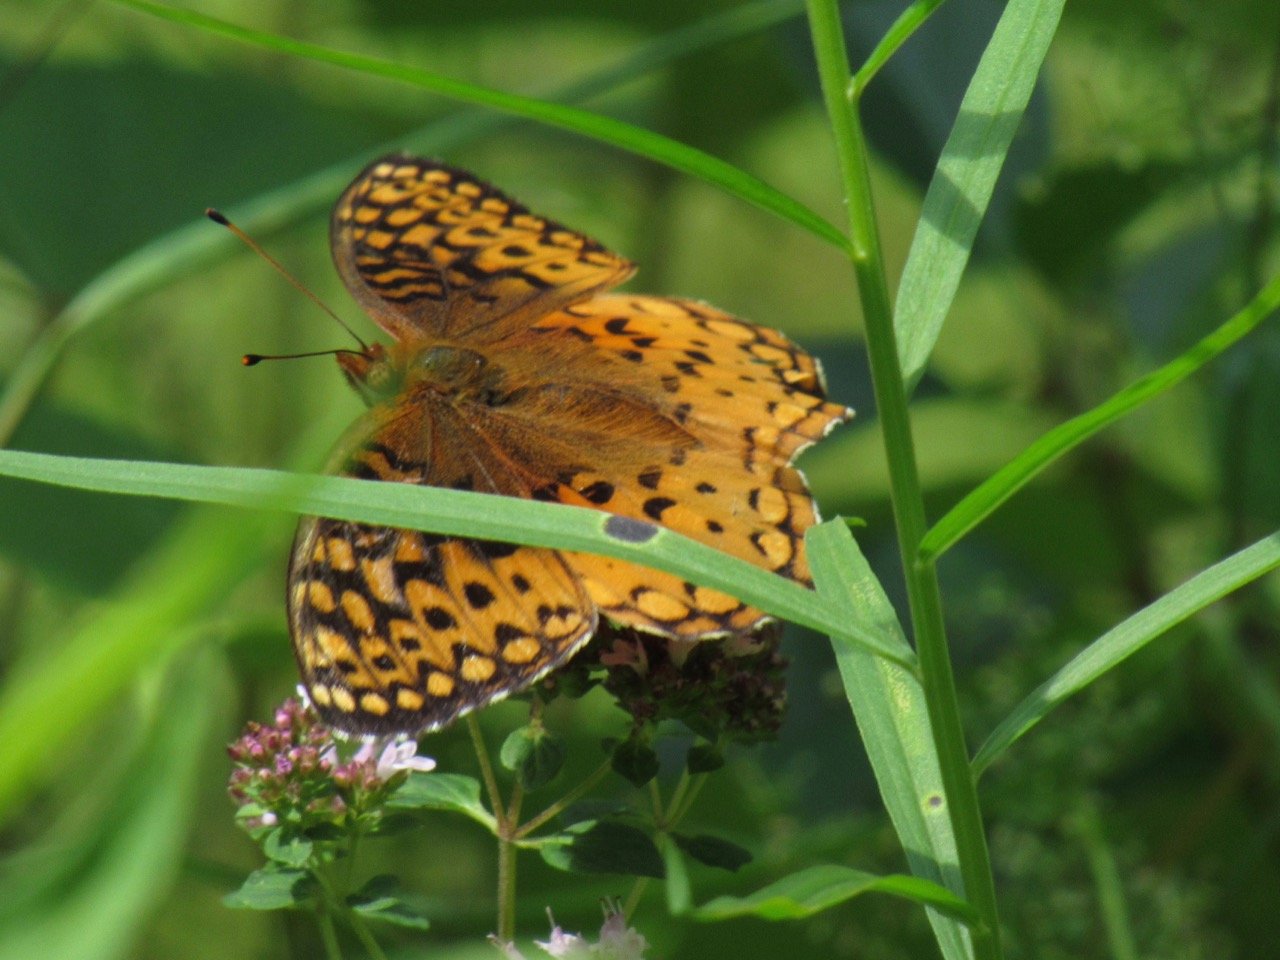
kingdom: Animalia
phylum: Arthropoda
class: Insecta
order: Lepidoptera
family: Nymphalidae
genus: Speyeria
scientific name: Speyeria aphrodite
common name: Aphrodite Fritillary
